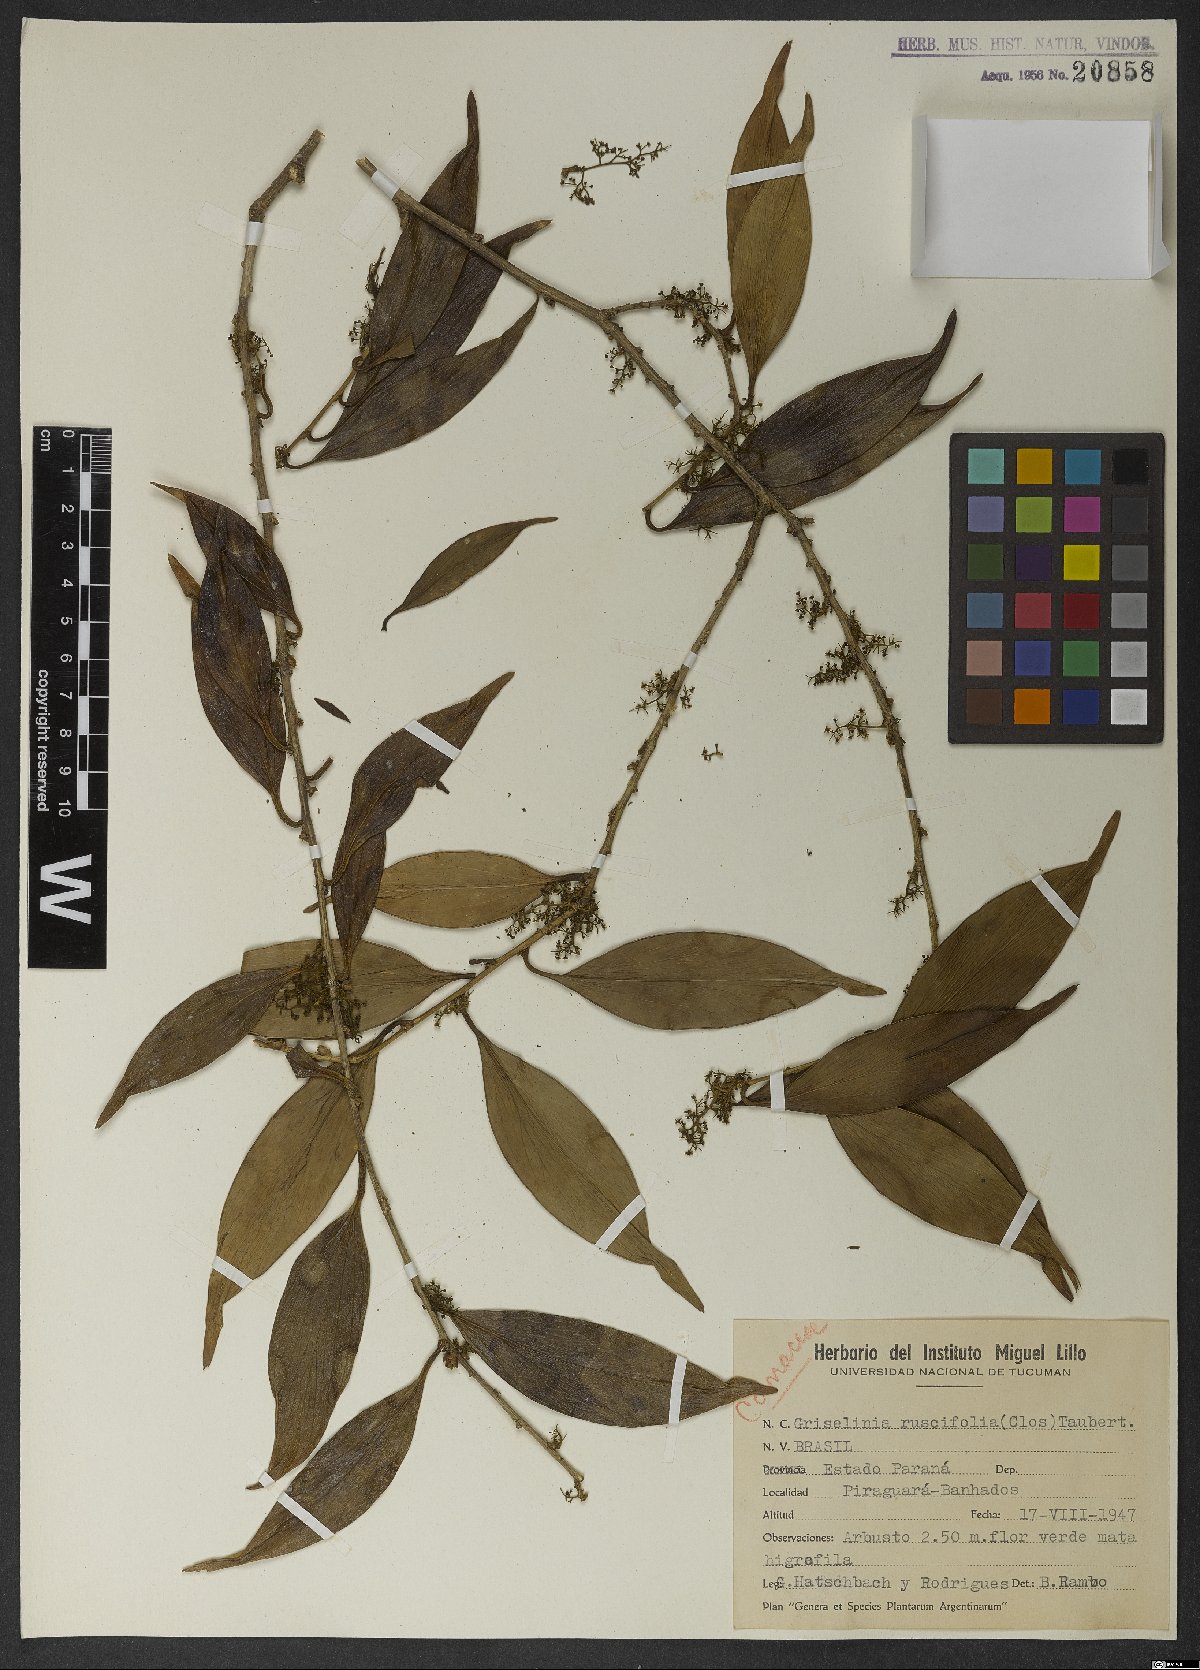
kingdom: Plantae
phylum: Tracheophyta
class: Magnoliopsida
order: Apiales
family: Griseliniaceae
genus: Griselinia
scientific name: Griselinia ruscifolia
